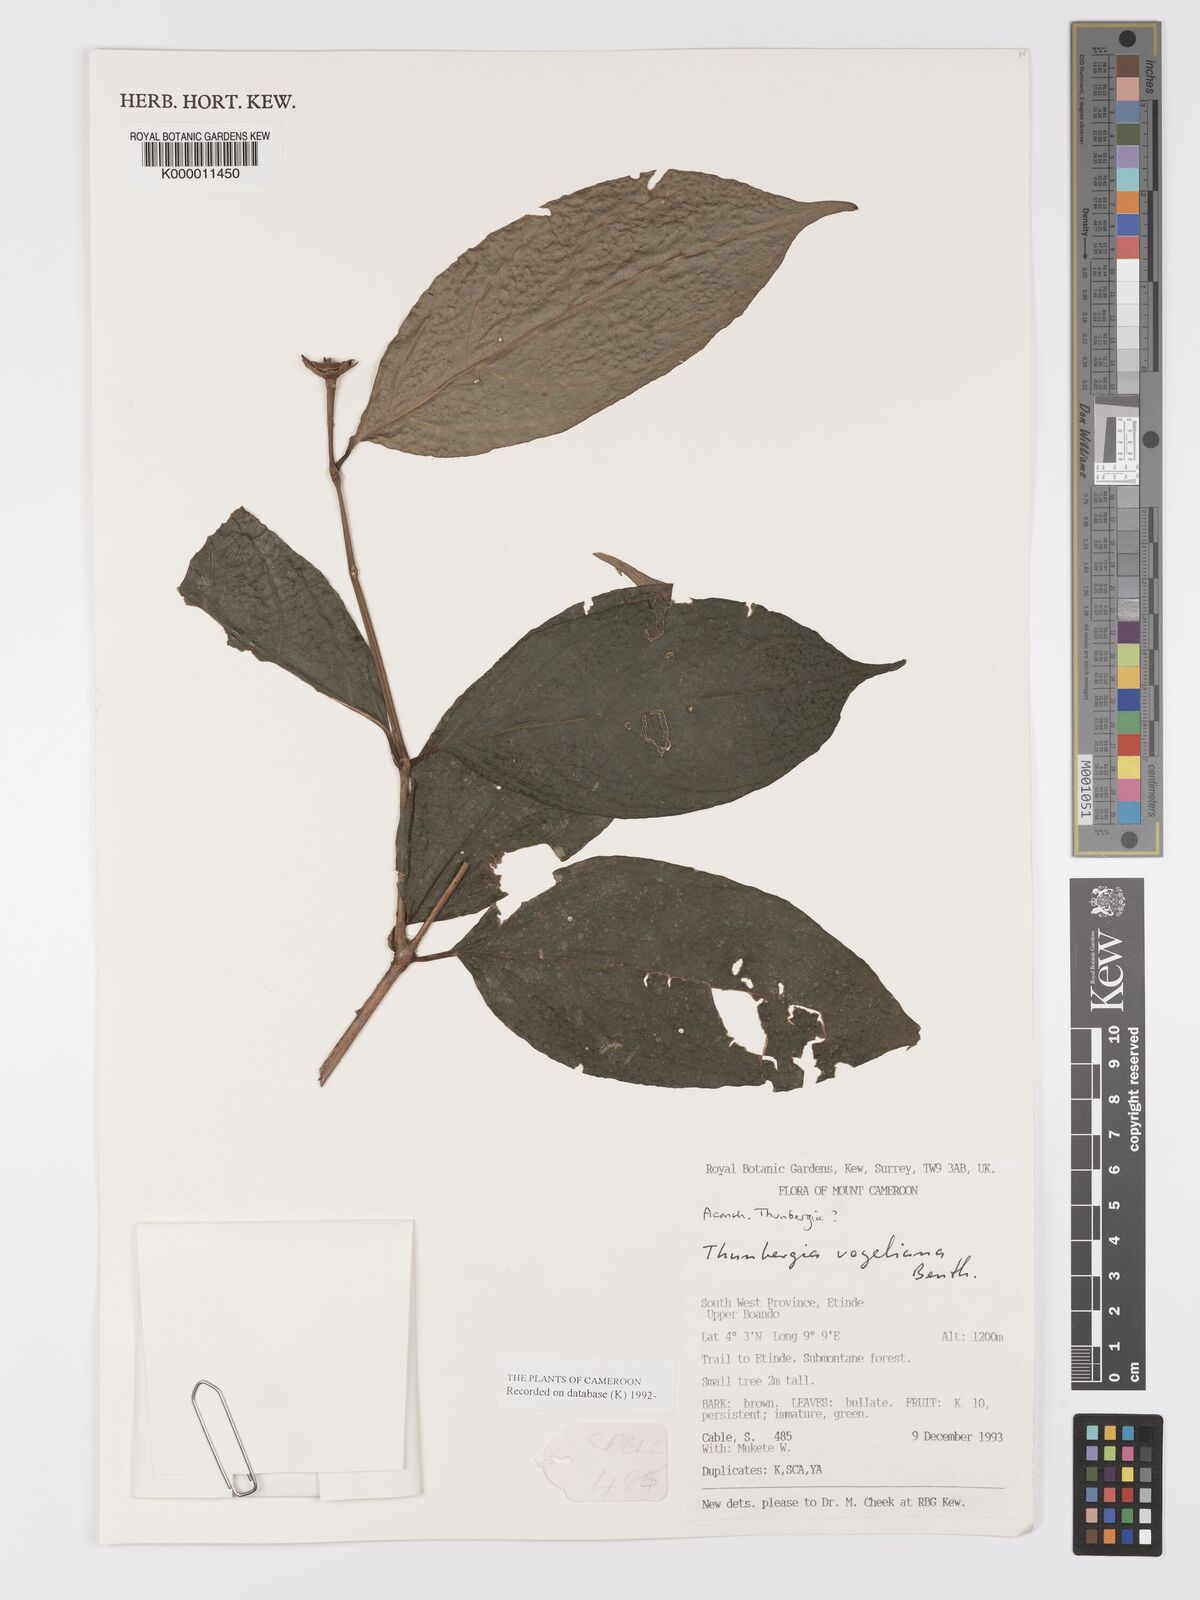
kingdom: Plantae
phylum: Tracheophyta
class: Magnoliopsida
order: Lamiales
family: Acanthaceae
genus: Thunbergia
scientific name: Thunbergia vogeliana
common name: Acanthaceae
